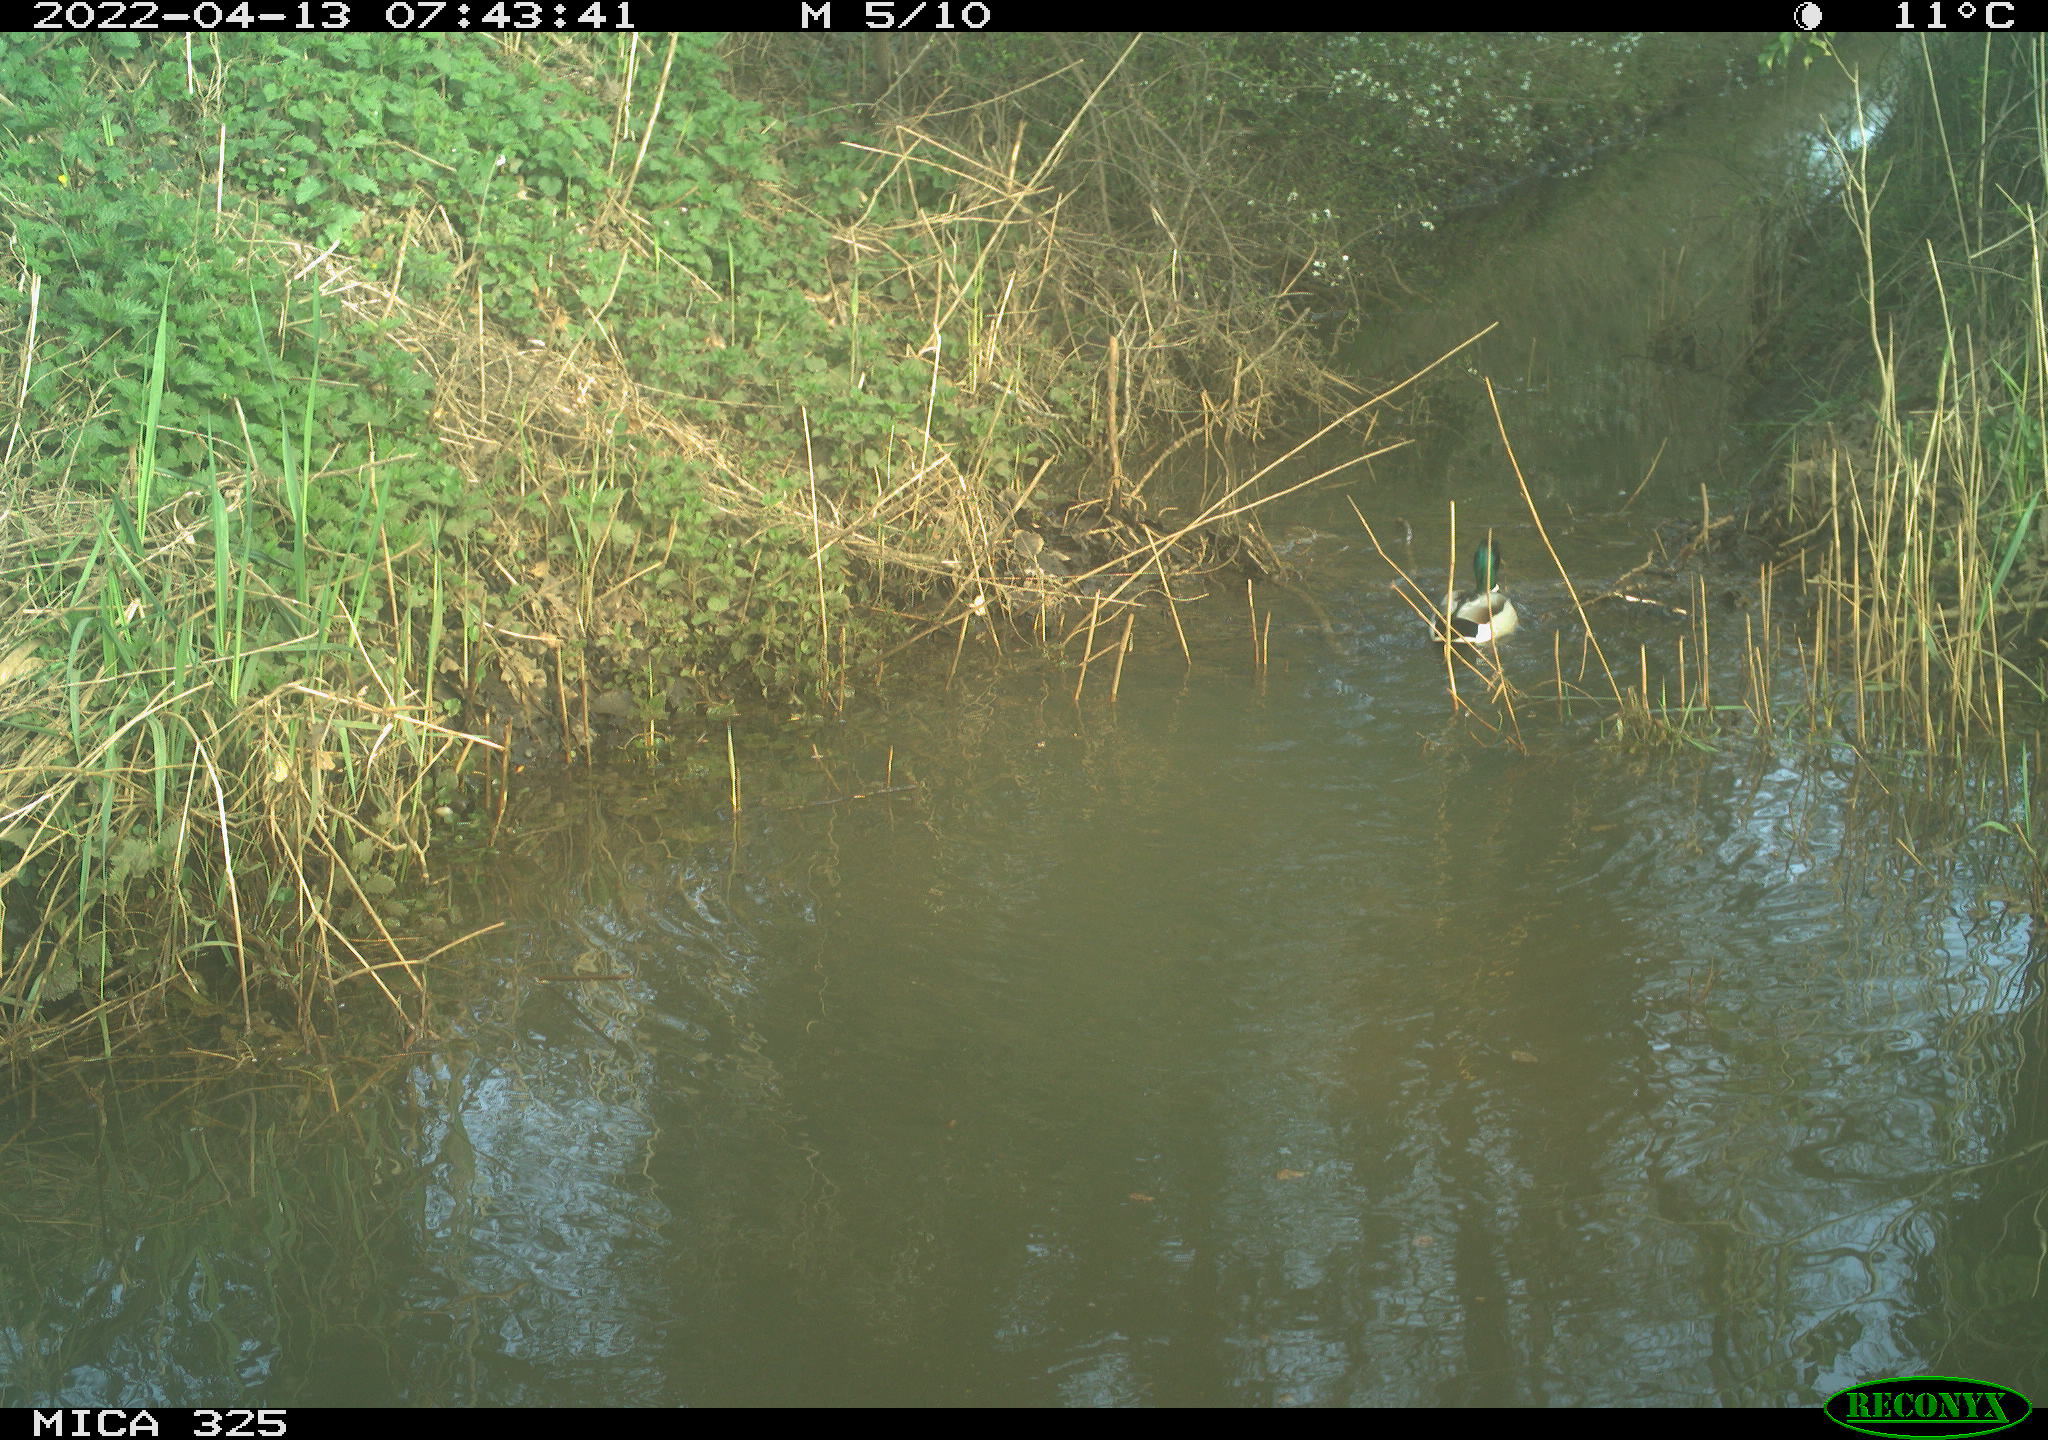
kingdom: Animalia
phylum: Chordata
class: Aves
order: Anseriformes
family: Anatidae
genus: Anas
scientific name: Anas platyrhynchos
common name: Mallard
